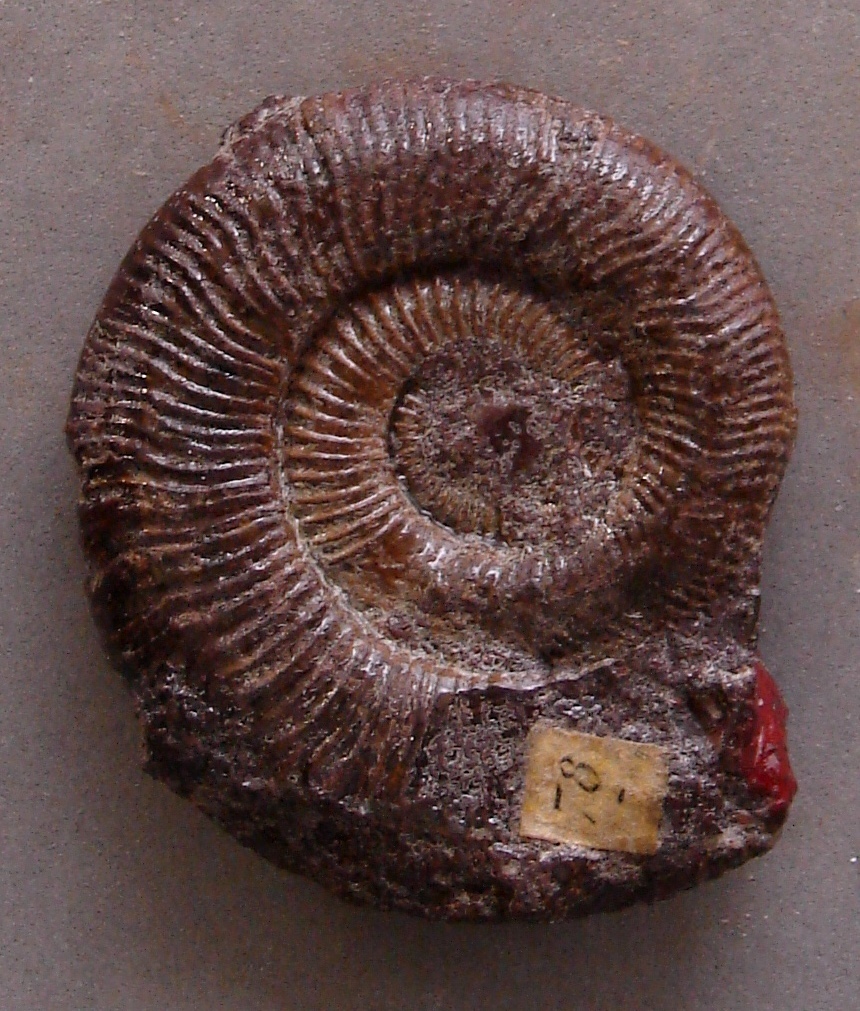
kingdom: Animalia
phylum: Mollusca
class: Cephalopoda
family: Dactylioceratidae
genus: Dactylioceras
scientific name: Dactylioceras
